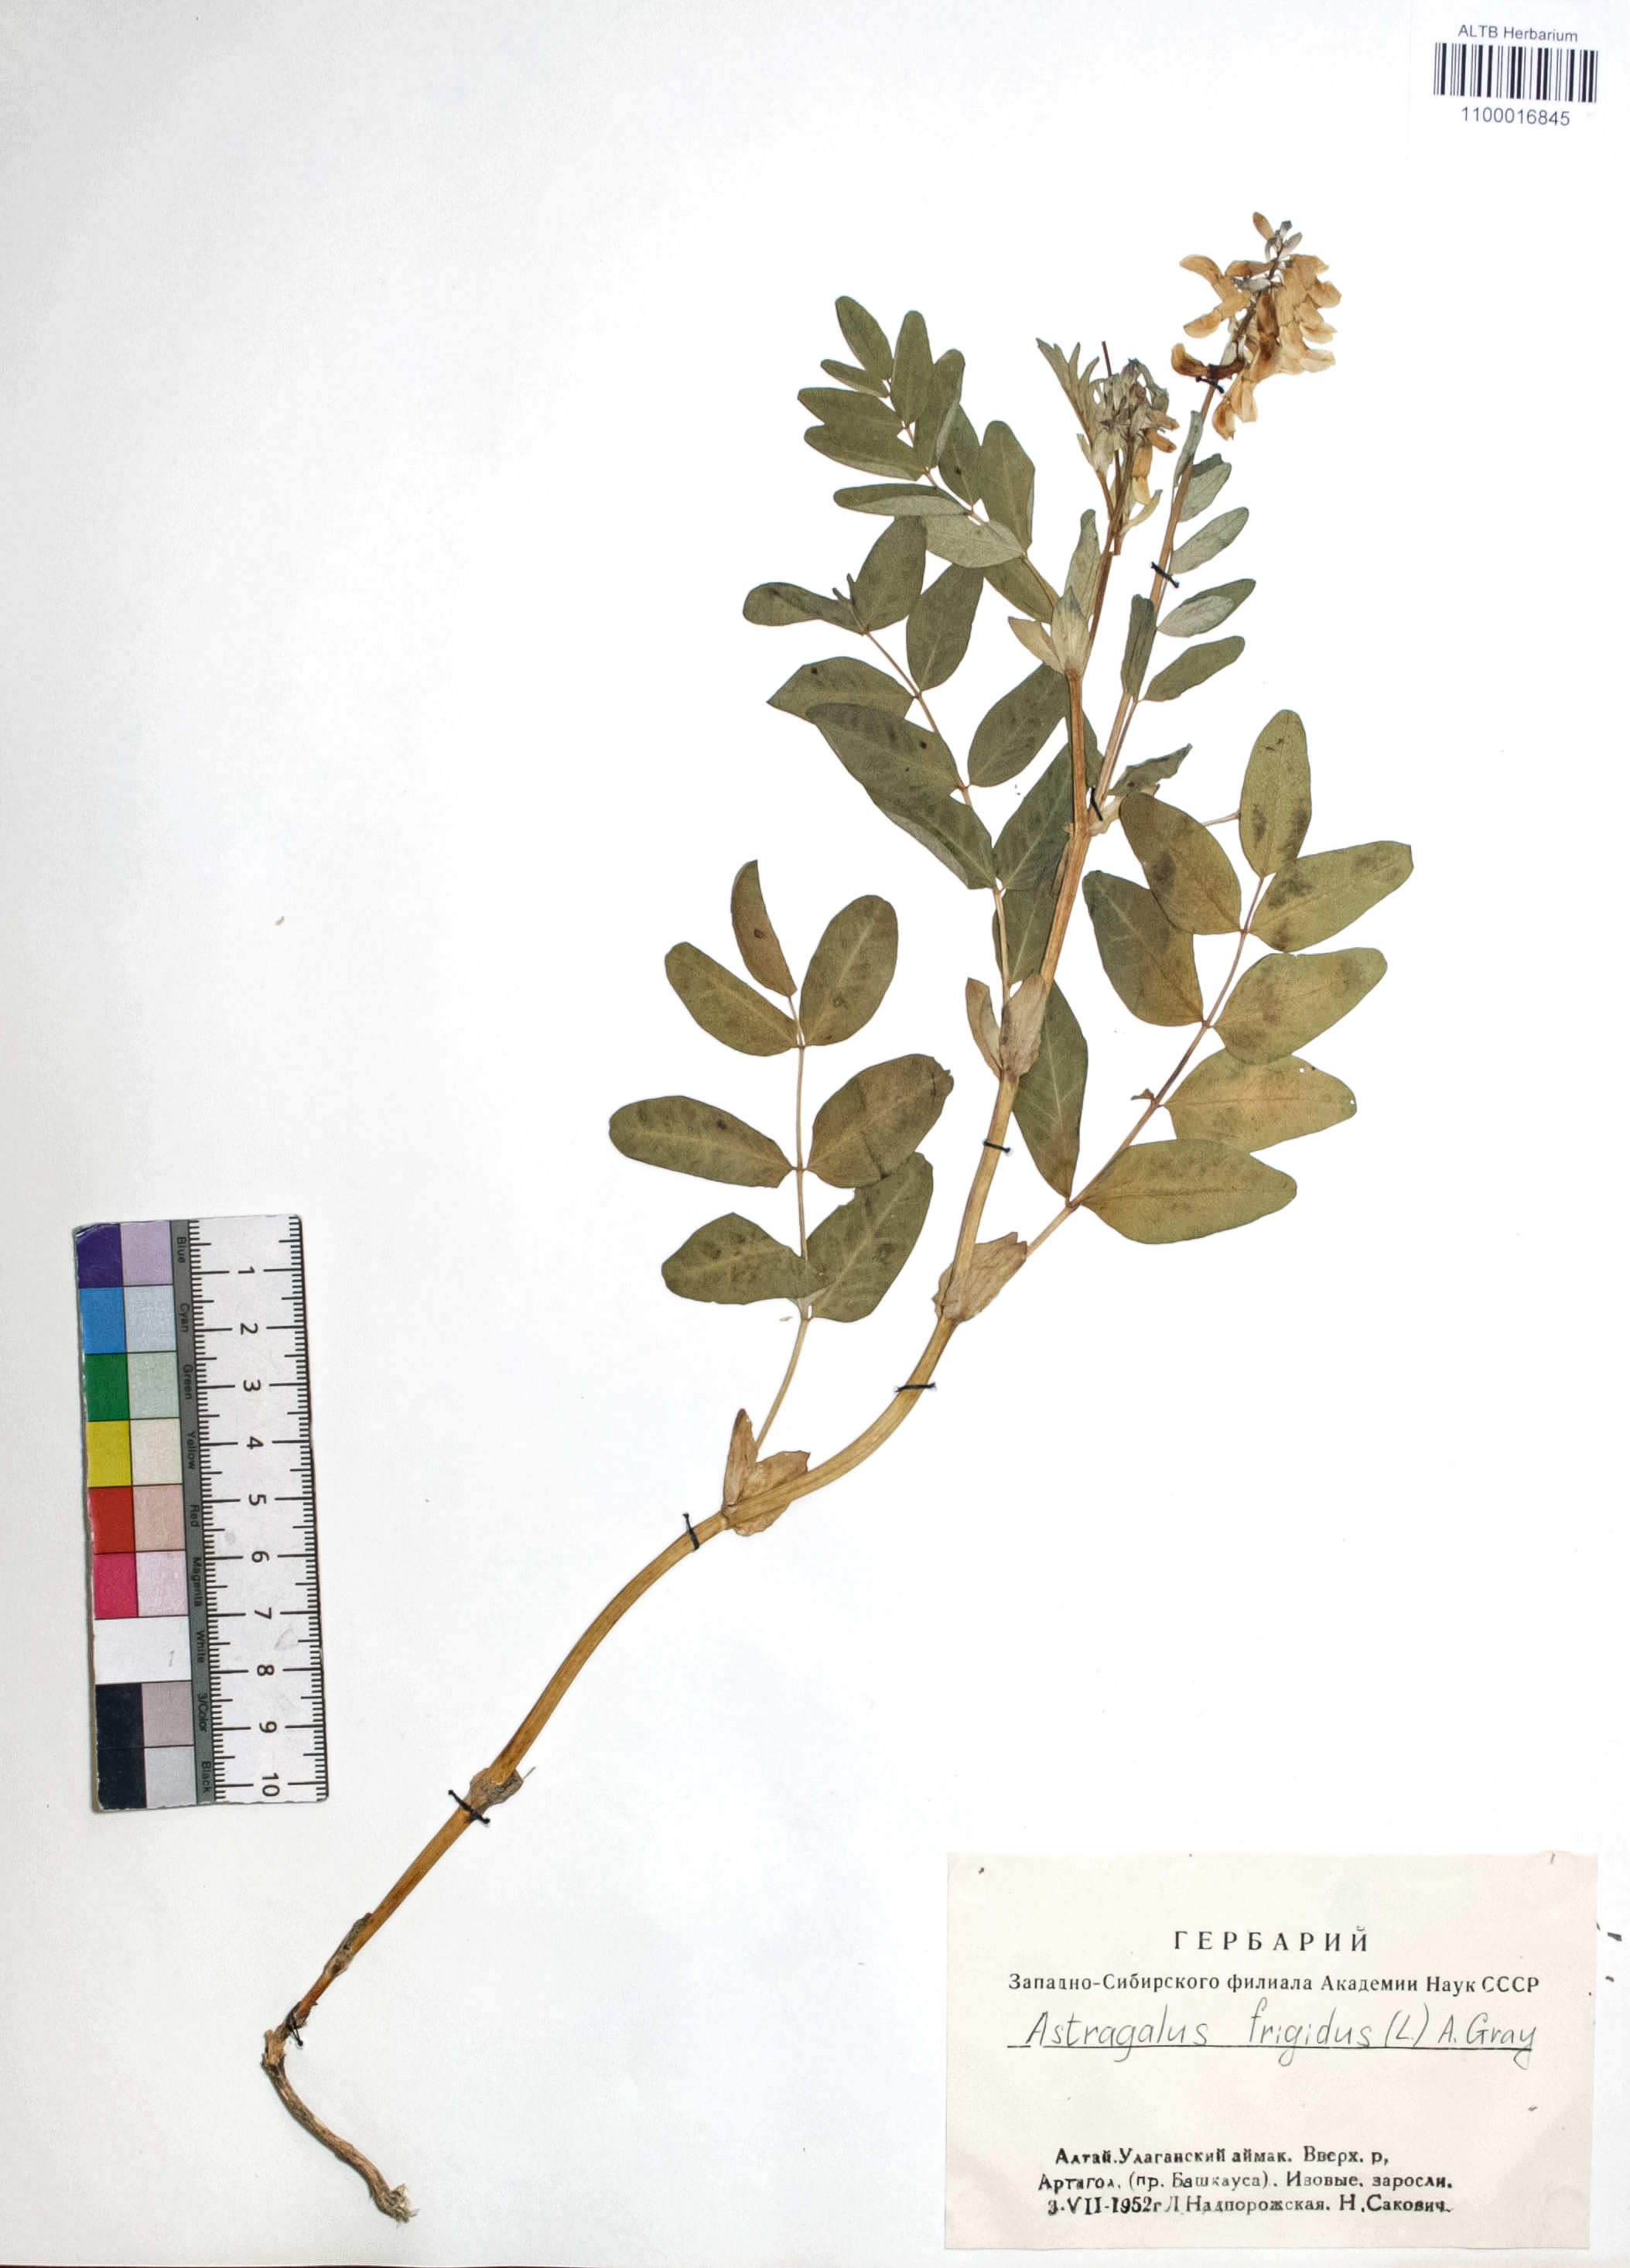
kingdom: Plantae
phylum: Tracheophyta
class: Magnoliopsida
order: Fabales
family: Fabaceae
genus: Astragalus
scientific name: Astragalus frigidus
